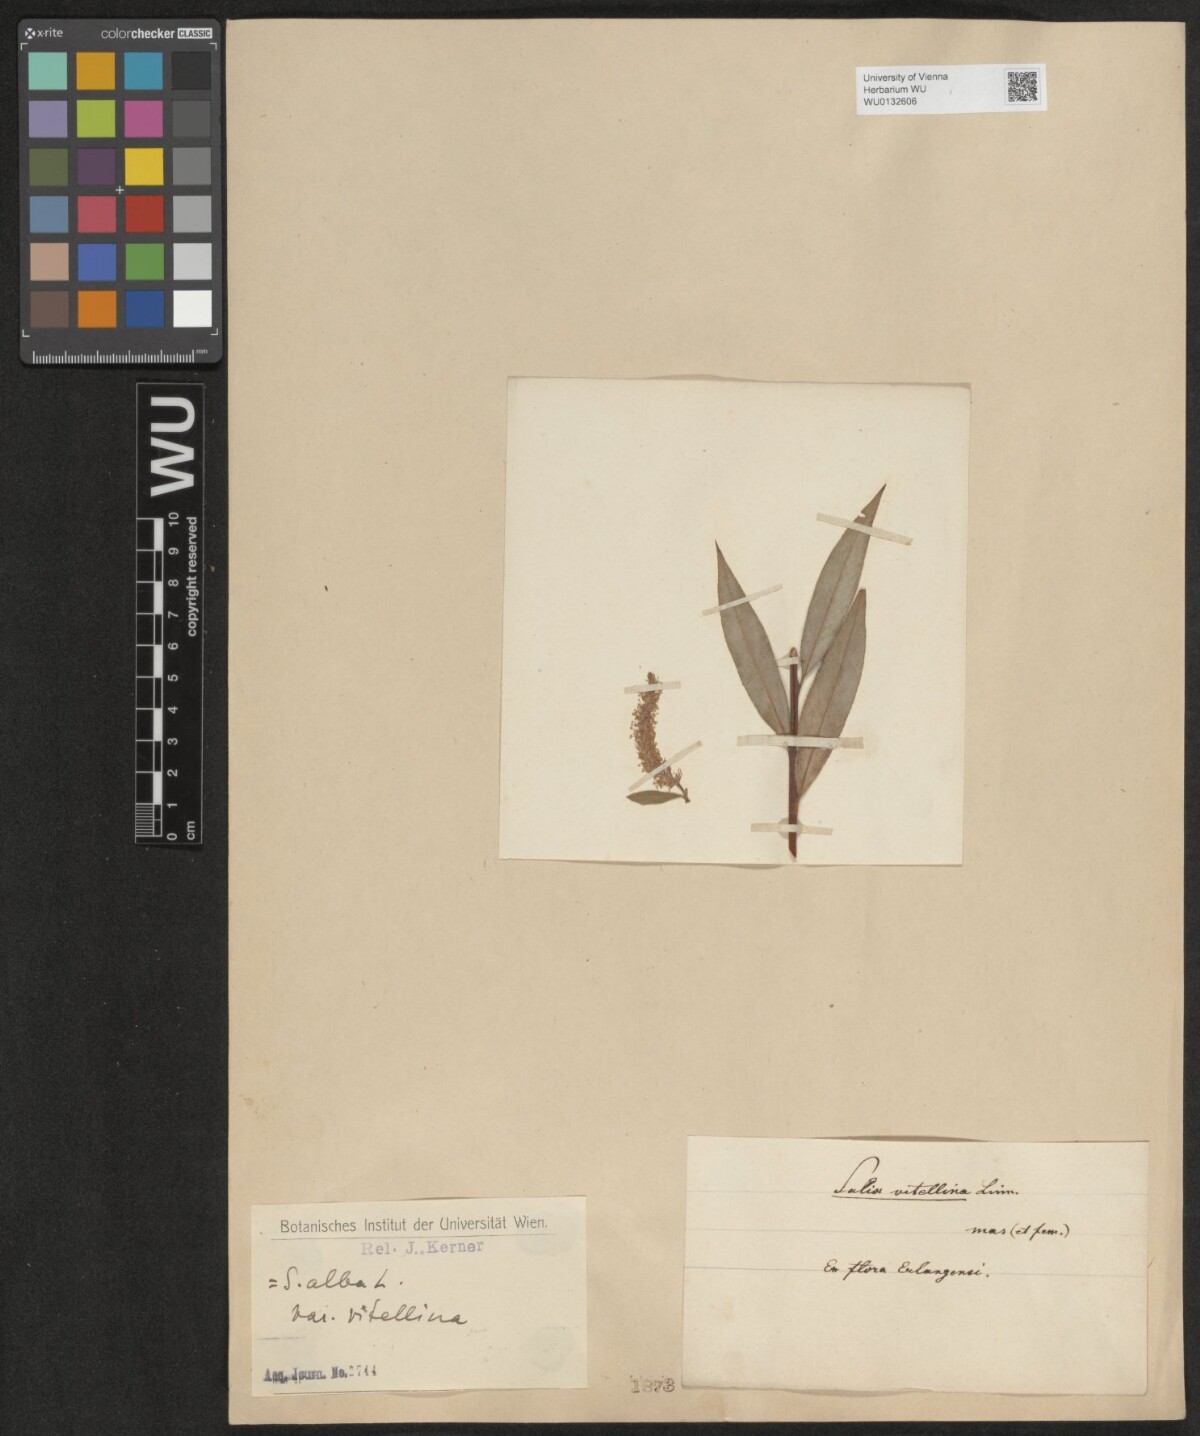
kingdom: Plantae
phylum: Tracheophyta
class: Magnoliopsida
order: Malpighiales
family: Salicaceae
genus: Salix
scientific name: Salix alba
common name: White willow
